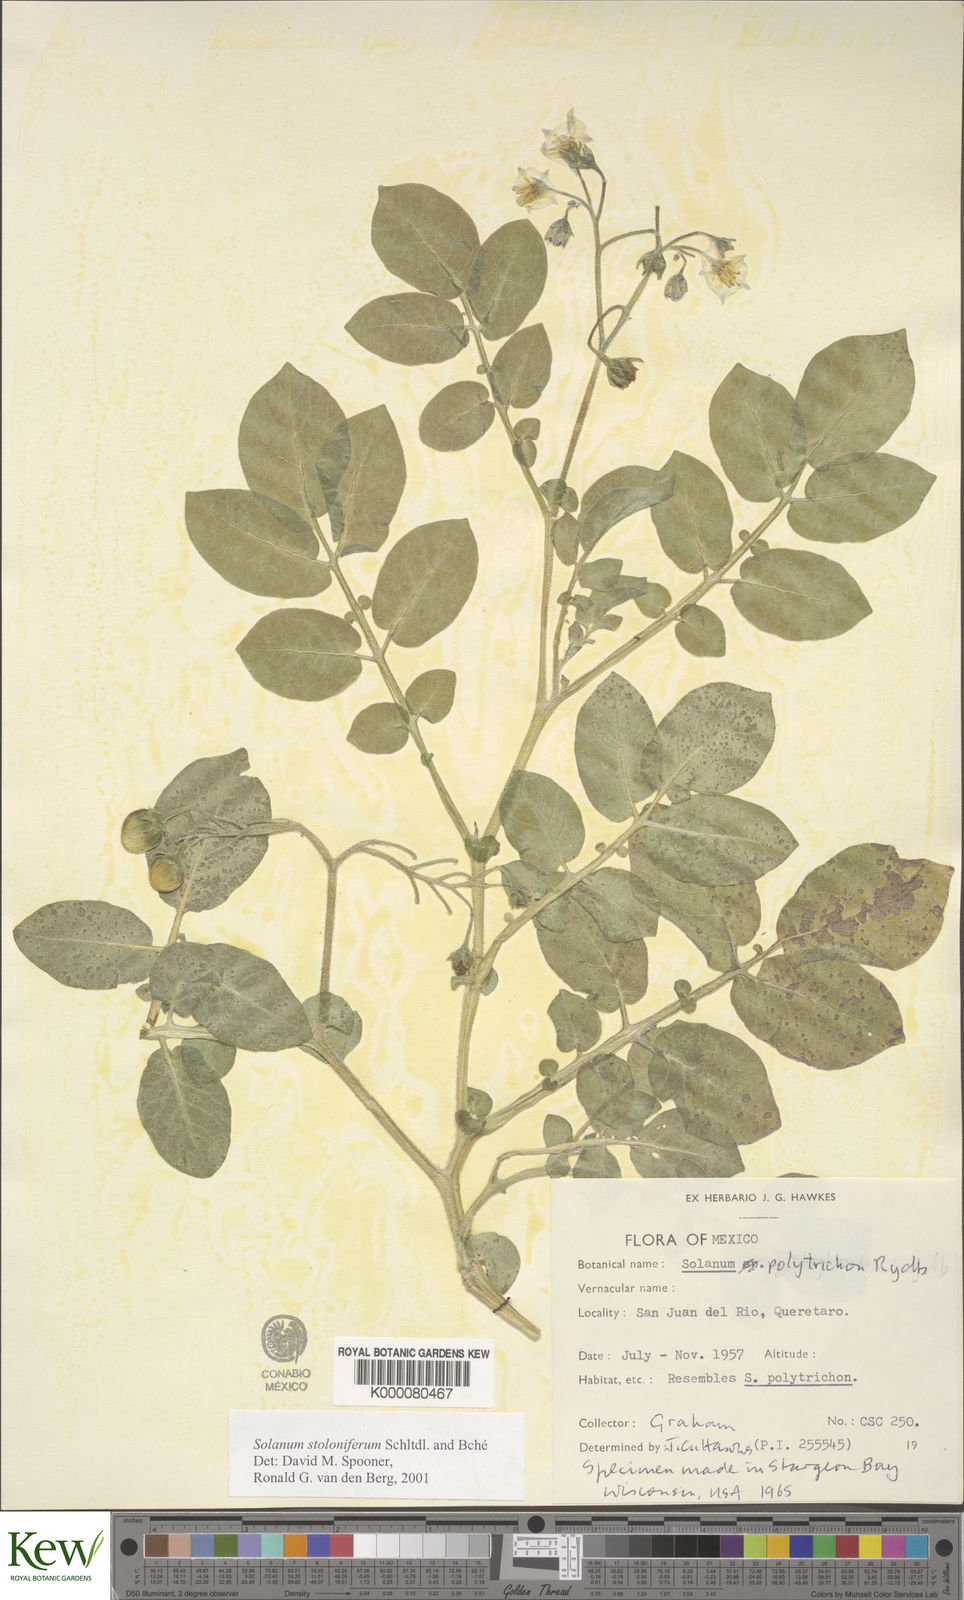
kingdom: Plantae
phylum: Tracheophyta
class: Magnoliopsida
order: Solanales
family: Solanaceae
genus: Solanum
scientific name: Solanum stoloniferum
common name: Fendler's nighshade
